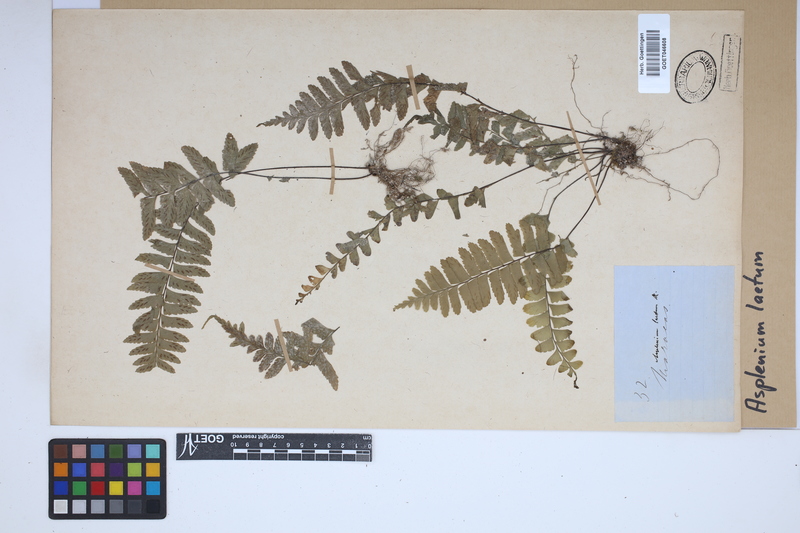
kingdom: Plantae
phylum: Tracheophyta
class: Polypodiopsida
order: Polypodiales
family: Aspleniaceae
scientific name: Aspleniaceae
